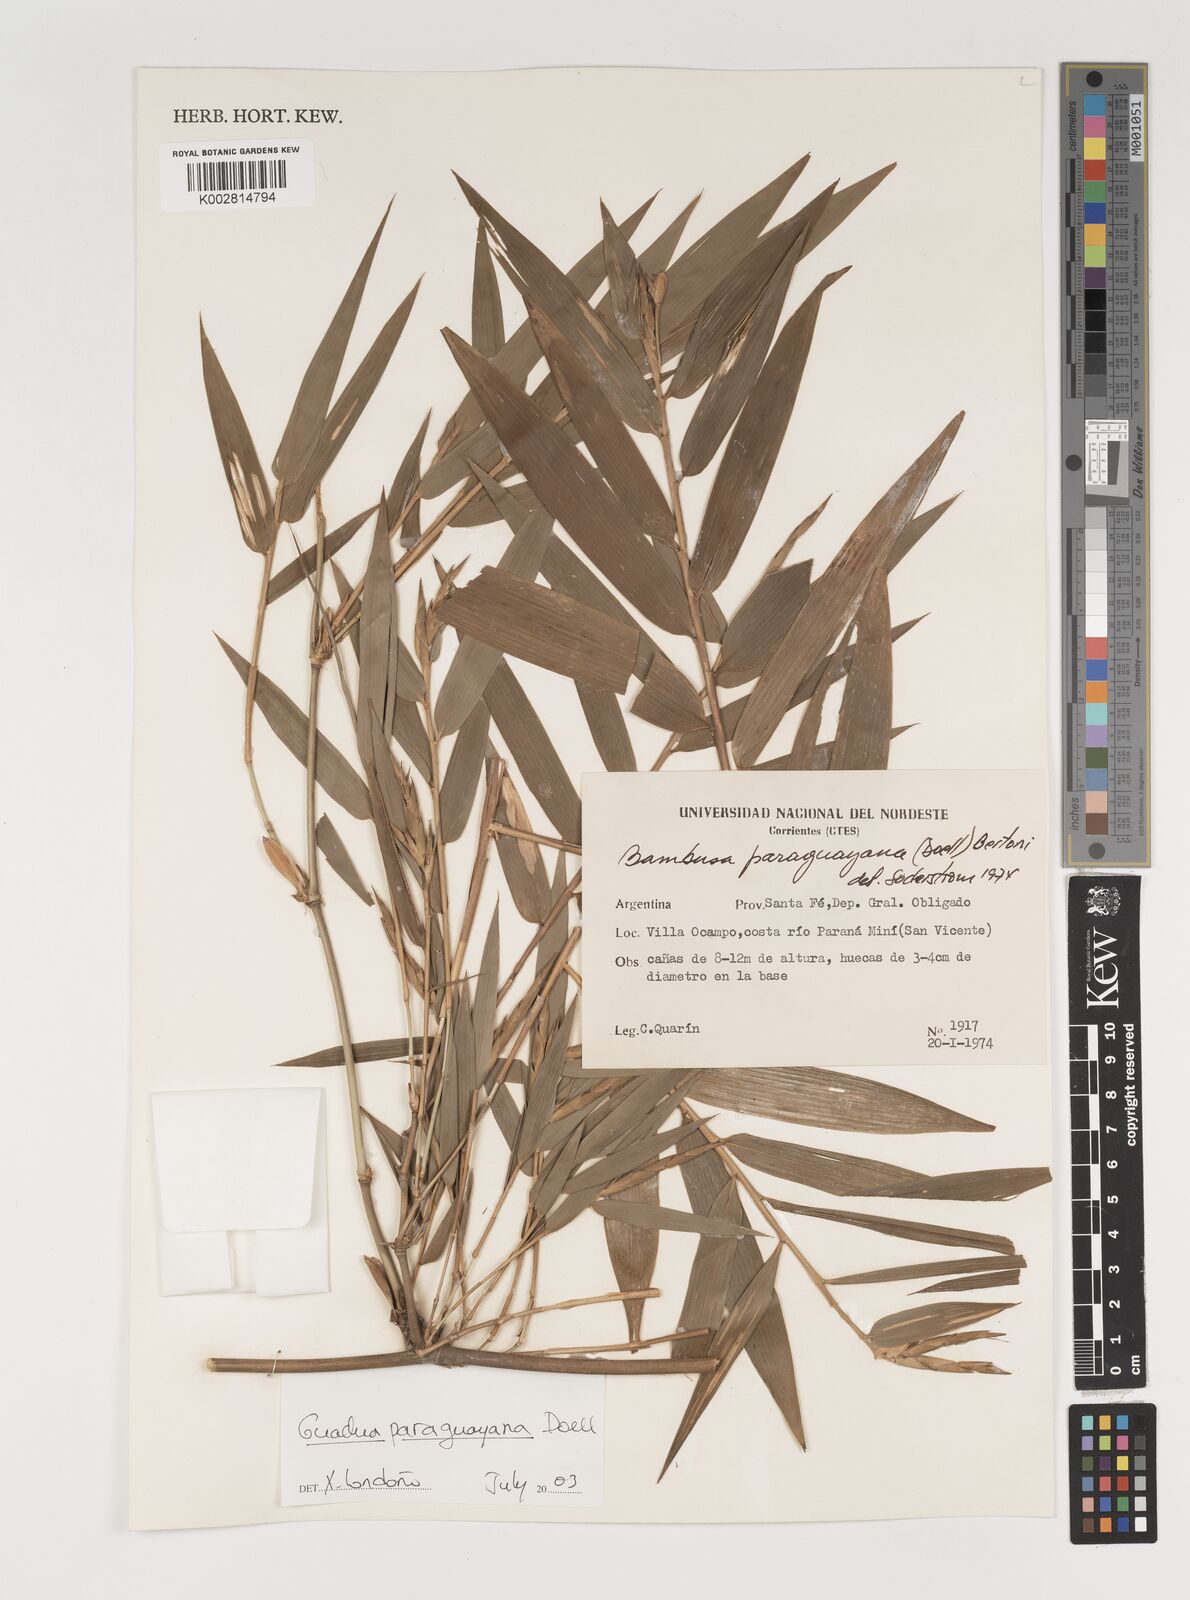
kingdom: Plantae
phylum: Tracheophyta
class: Liliopsida
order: Poales
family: Poaceae
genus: Guadua
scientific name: Guadua paraguayana
